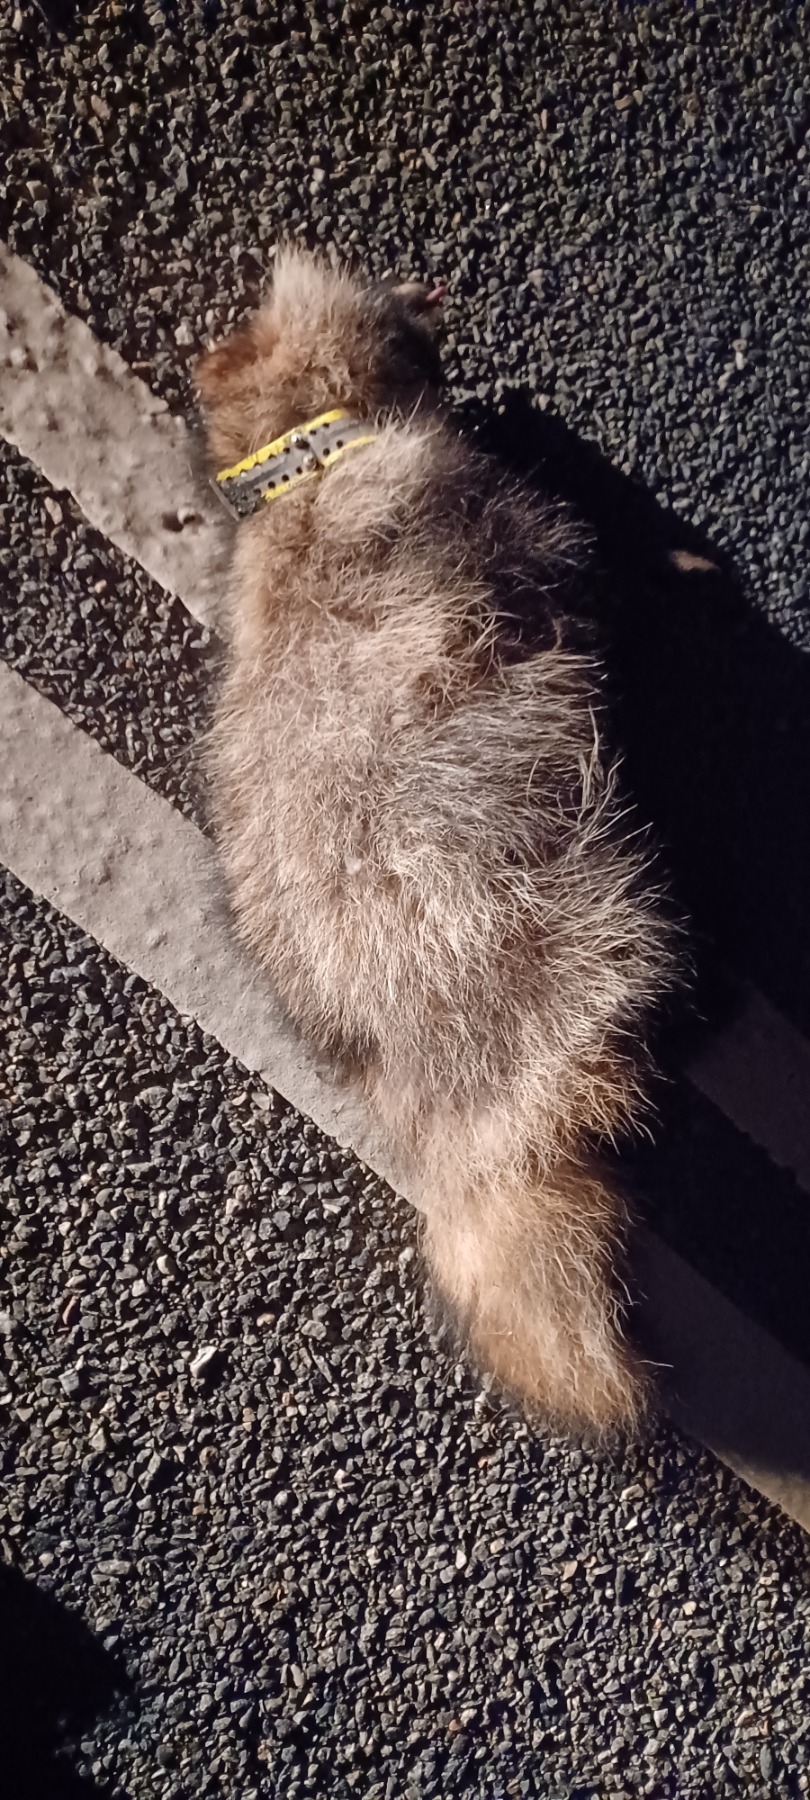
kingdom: Animalia
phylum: Chordata
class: Mammalia
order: Carnivora
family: Canidae
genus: Nyctereutes
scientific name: Nyctereutes procyonoides
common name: Mårhund
